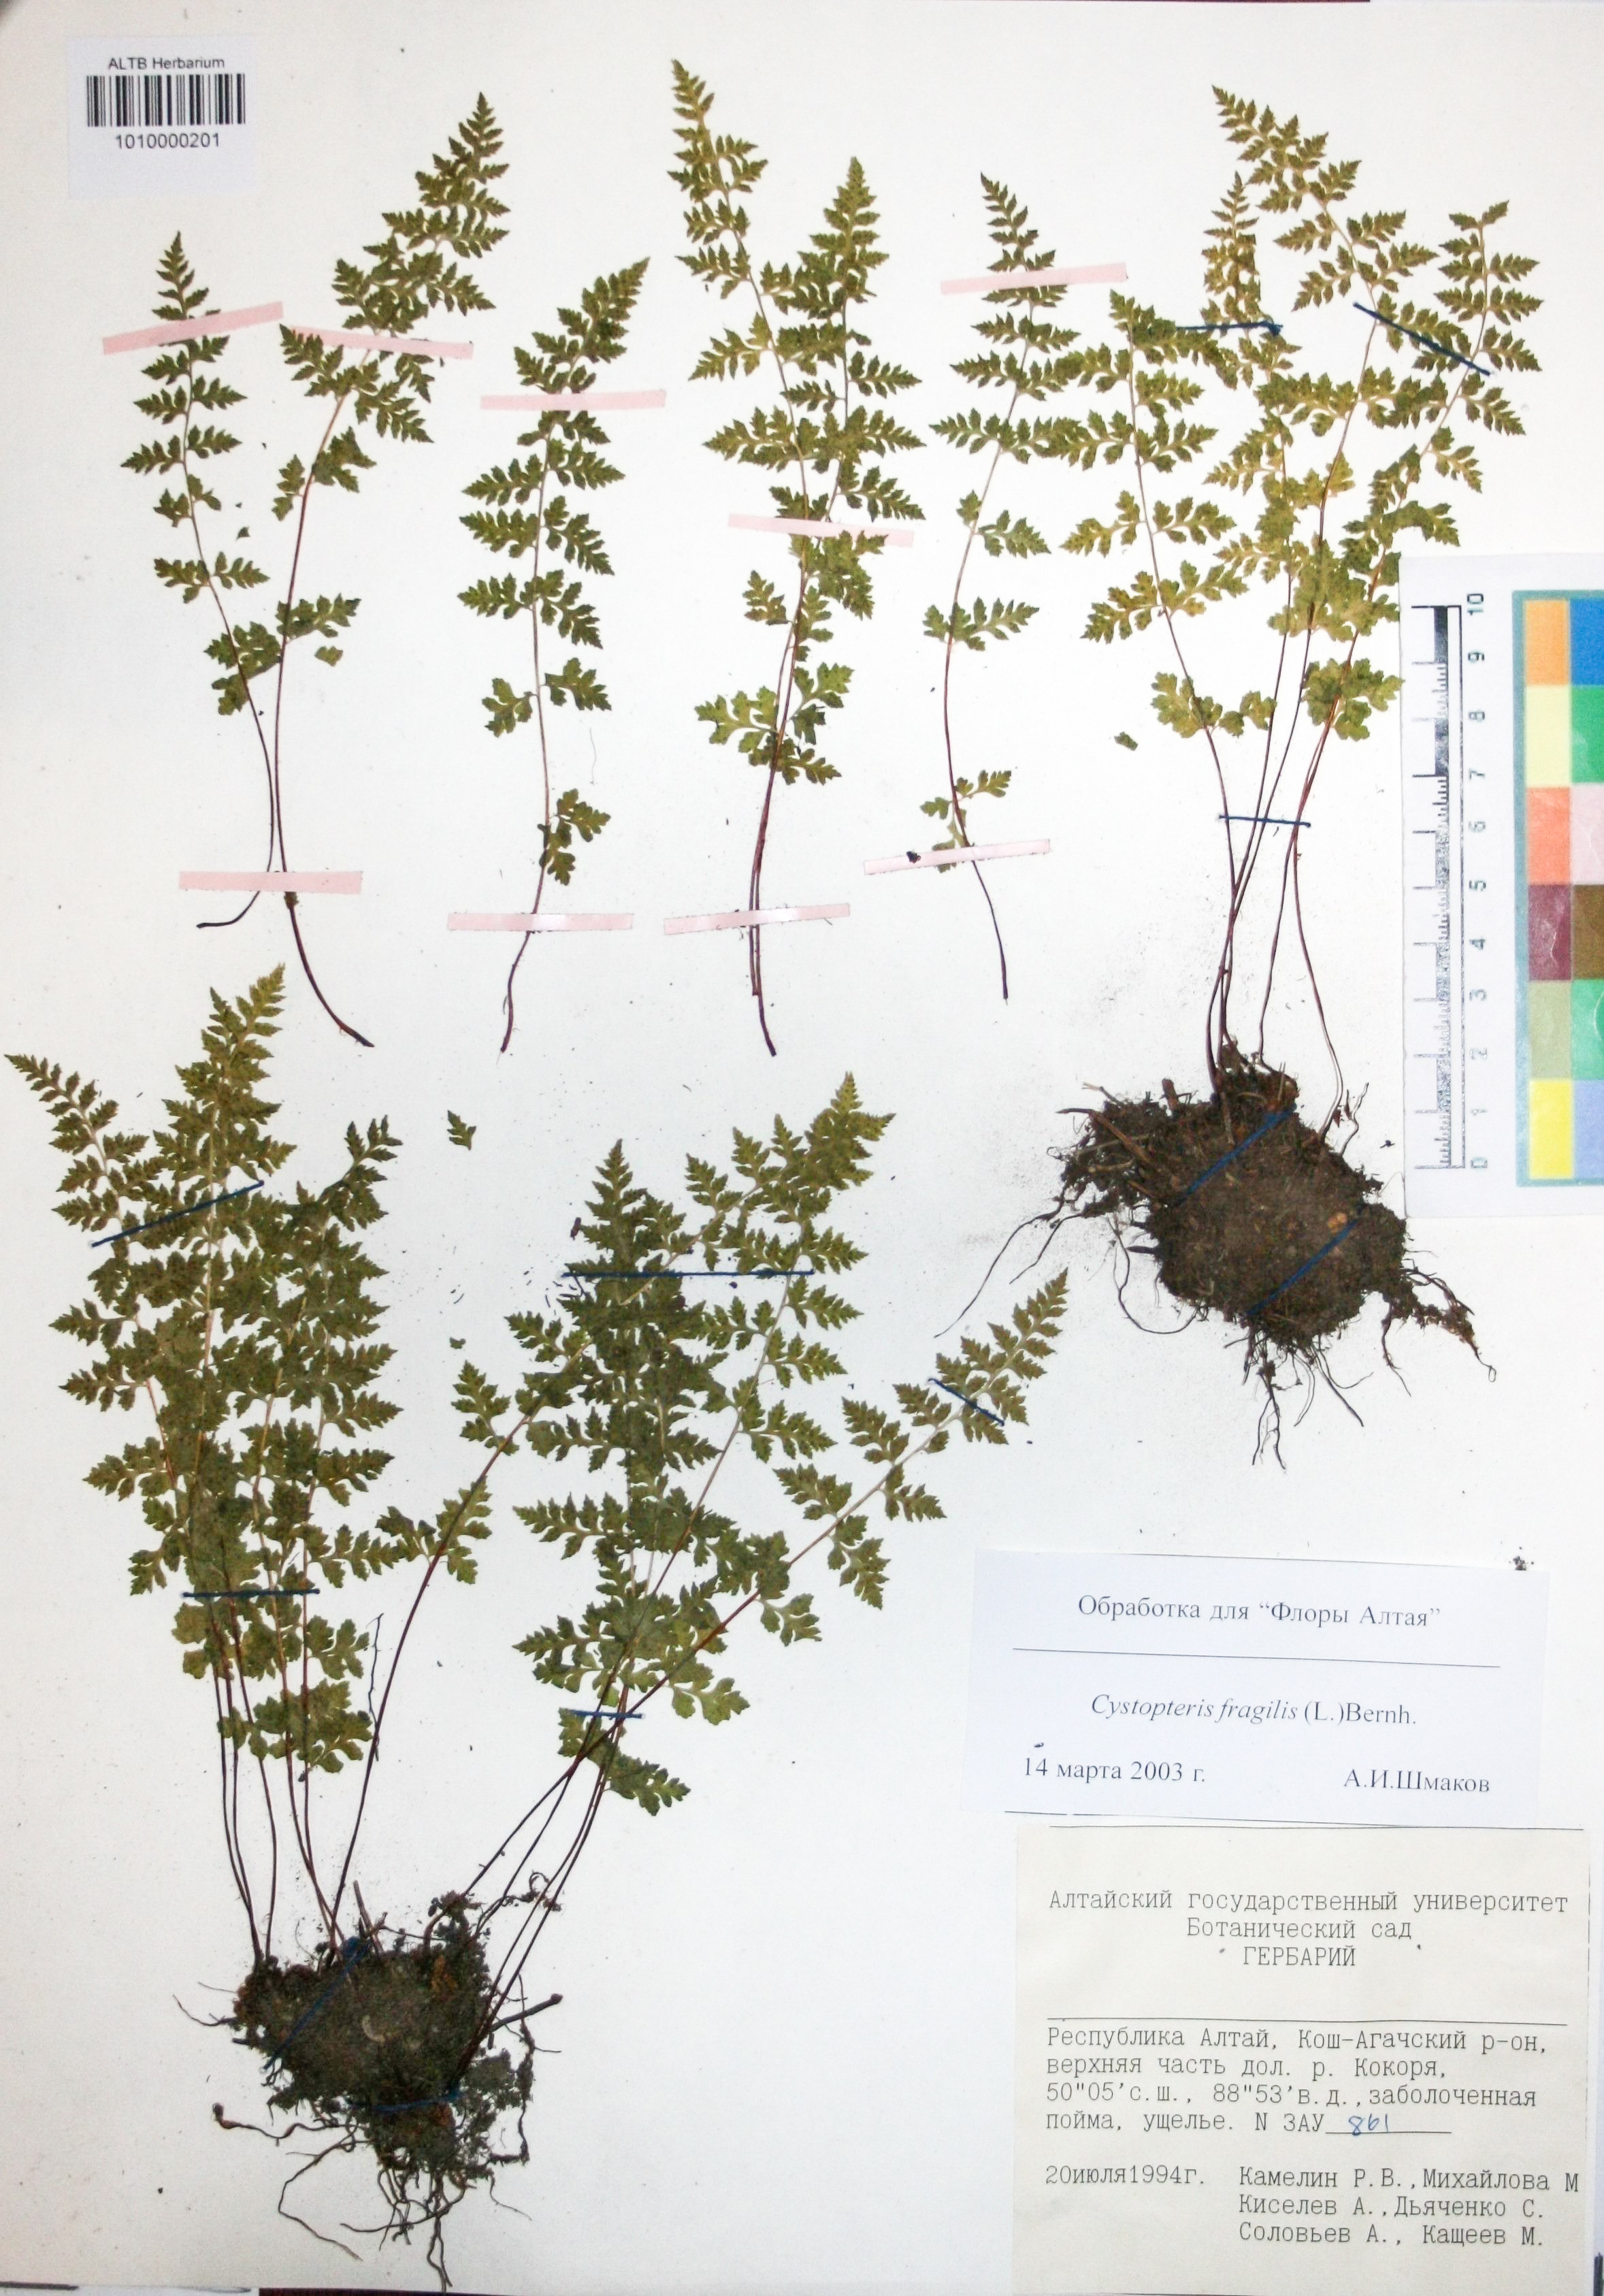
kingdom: Plantae
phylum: Tracheophyta
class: Polypodiopsida
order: Polypodiales
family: Cystopteridaceae
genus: Cystopteris
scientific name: Cystopteris fragilis
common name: Brittle bladder fern
